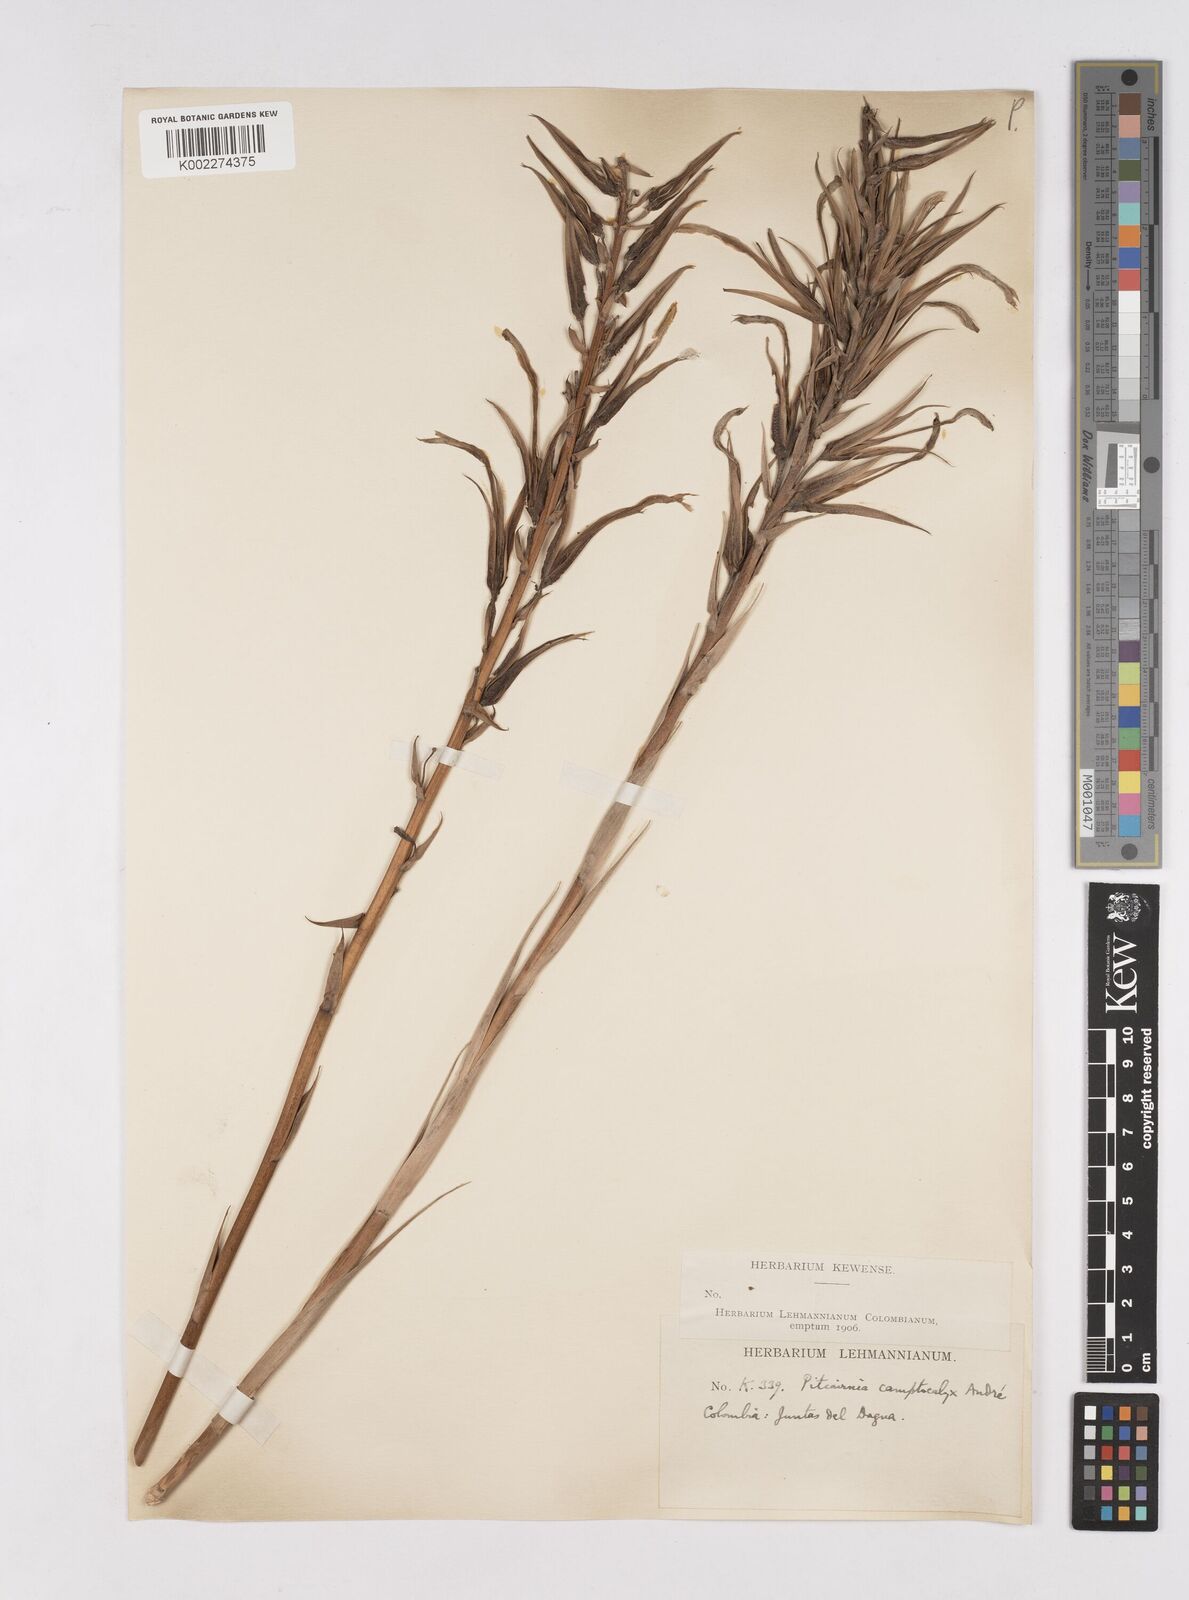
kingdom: Plantae
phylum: Tracheophyta
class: Liliopsida
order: Poales
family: Bromeliaceae
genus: Pitcairnia
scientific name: Pitcairnia megasepala
